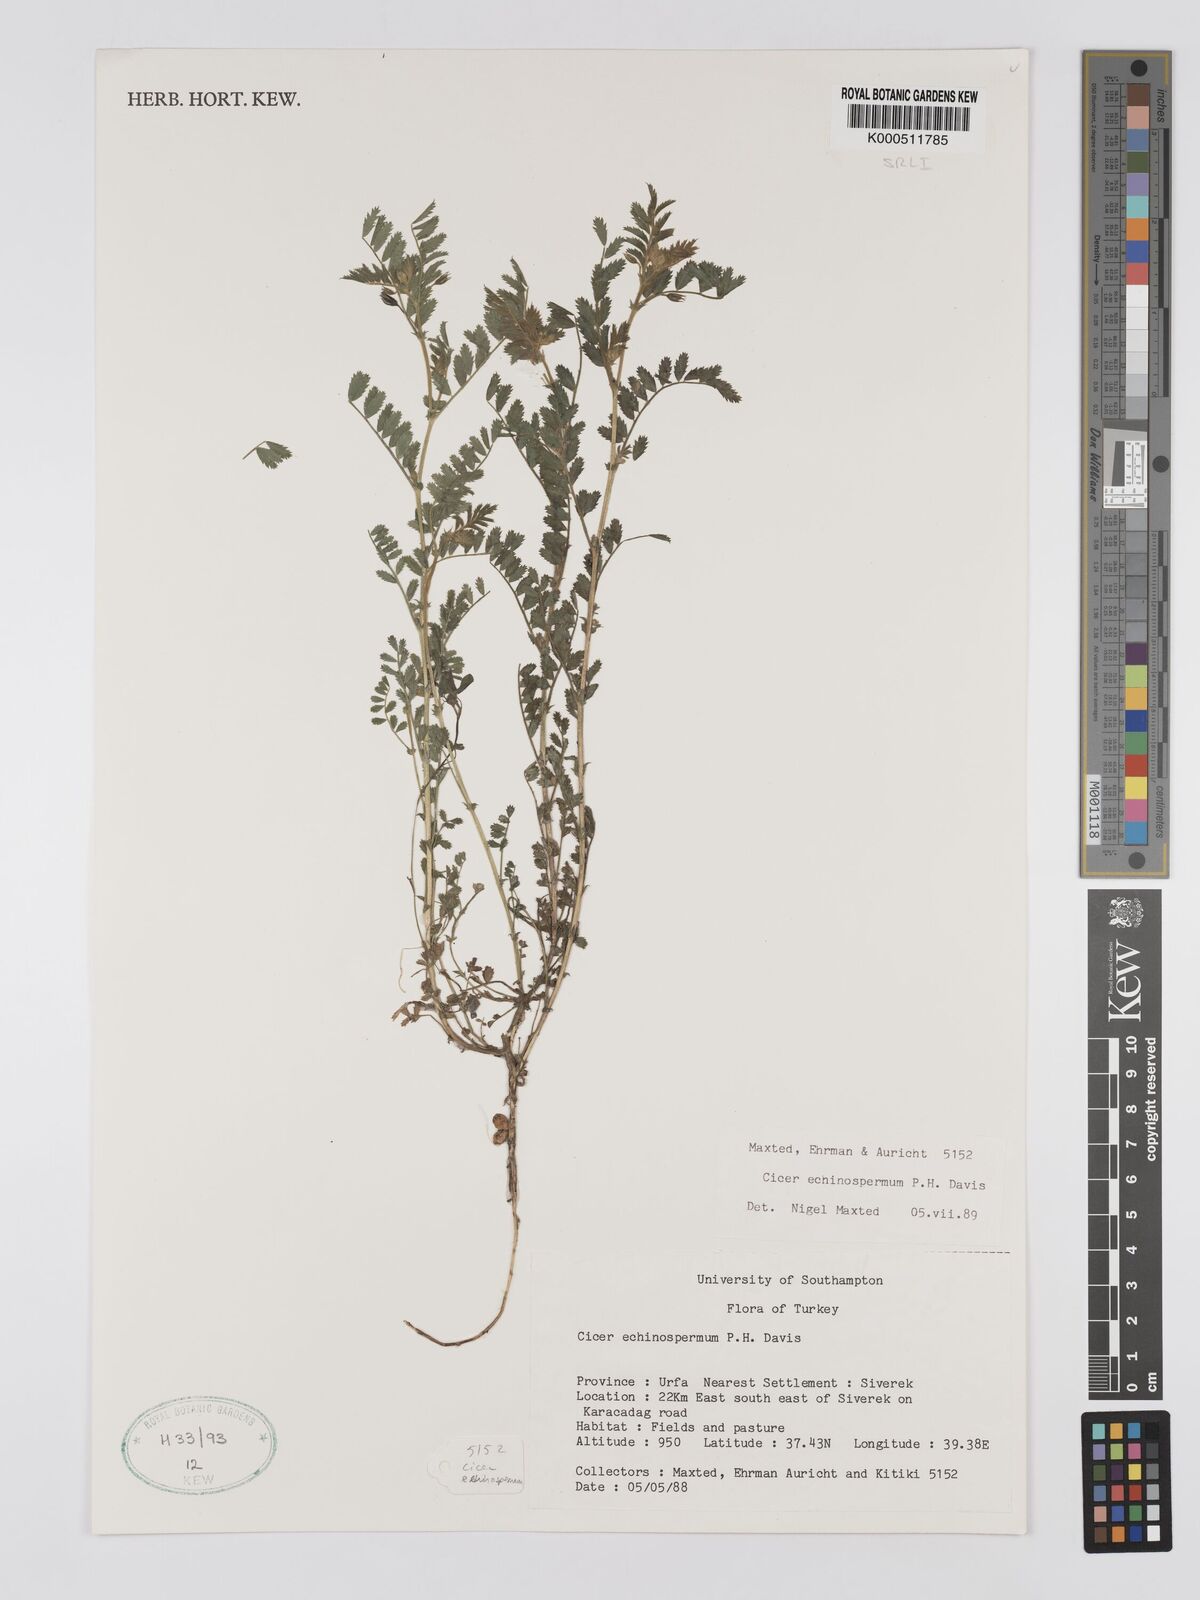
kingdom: Plantae
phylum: Tracheophyta
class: Magnoliopsida
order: Fabales
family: Fabaceae
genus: Cicer
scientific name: Cicer echinospermum
